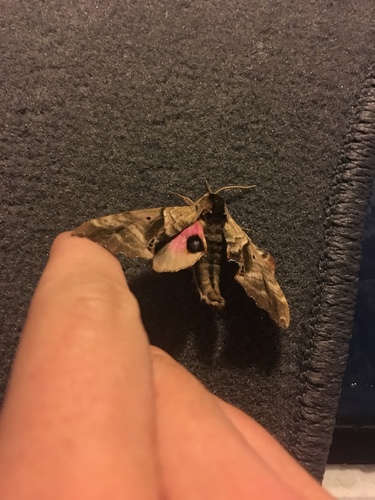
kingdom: Animalia
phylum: Arthropoda
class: Insecta
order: Lepidoptera
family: Sphingidae
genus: Paonias
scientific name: Paonias excaecata
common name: Blind-eyed sphinx
